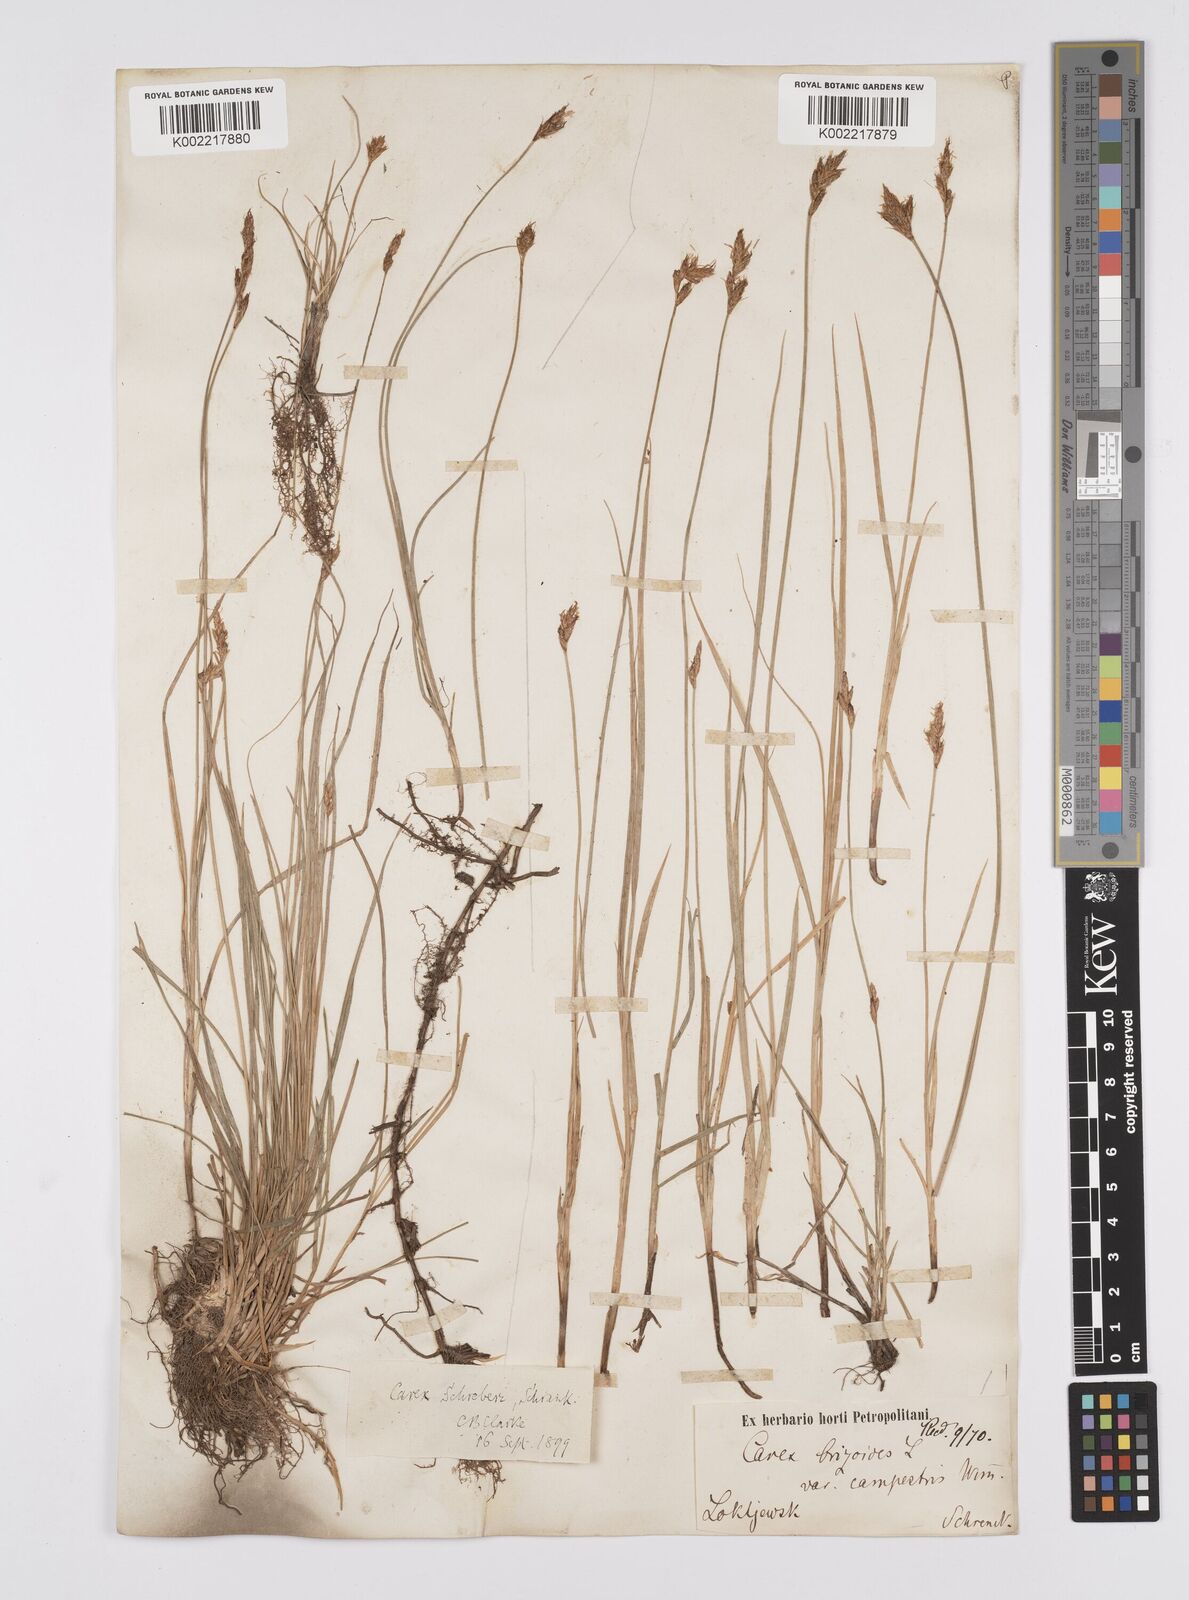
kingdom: Plantae
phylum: Tracheophyta
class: Liliopsida
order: Poales
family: Cyperaceae
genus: Carex
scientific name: Carex praecox
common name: Early sedge
